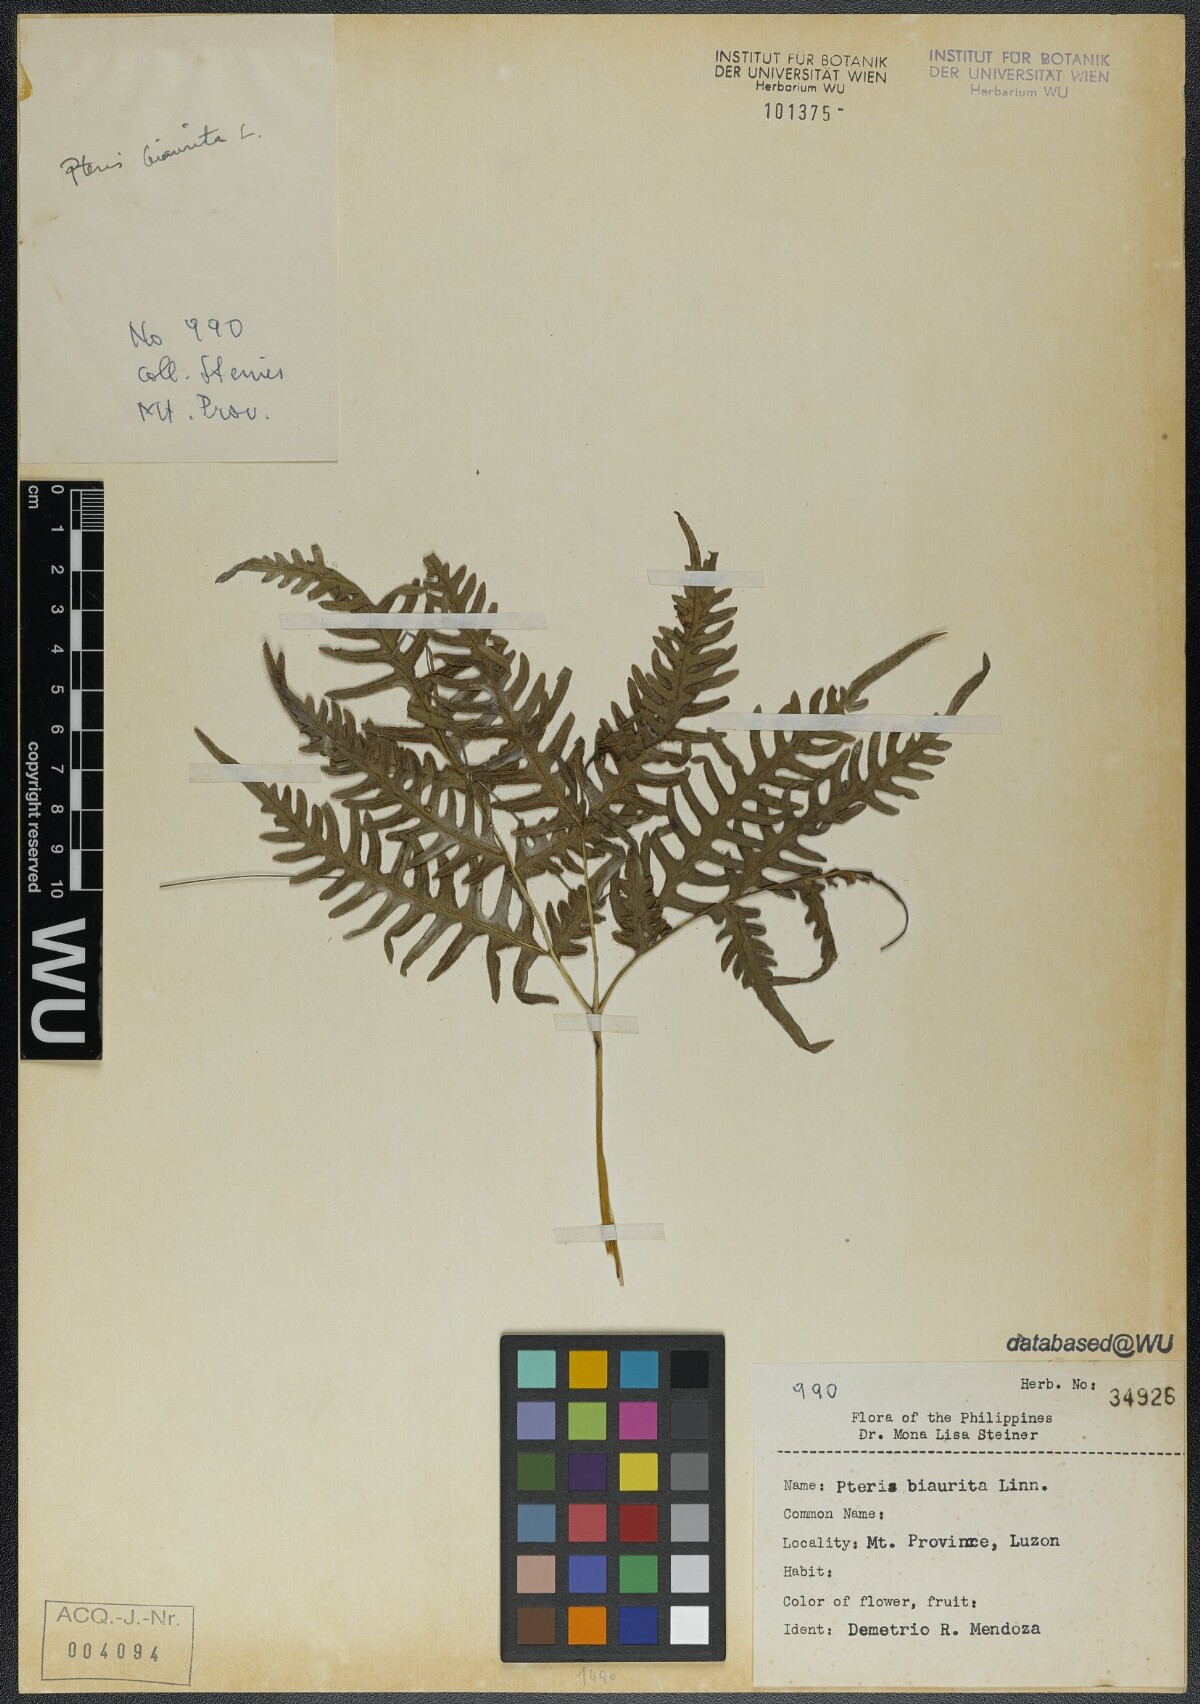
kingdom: Plantae
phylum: Tracheophyta
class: Polypodiopsida
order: Polypodiales
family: Pteridaceae
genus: Pteris
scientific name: Pteris biaurita
